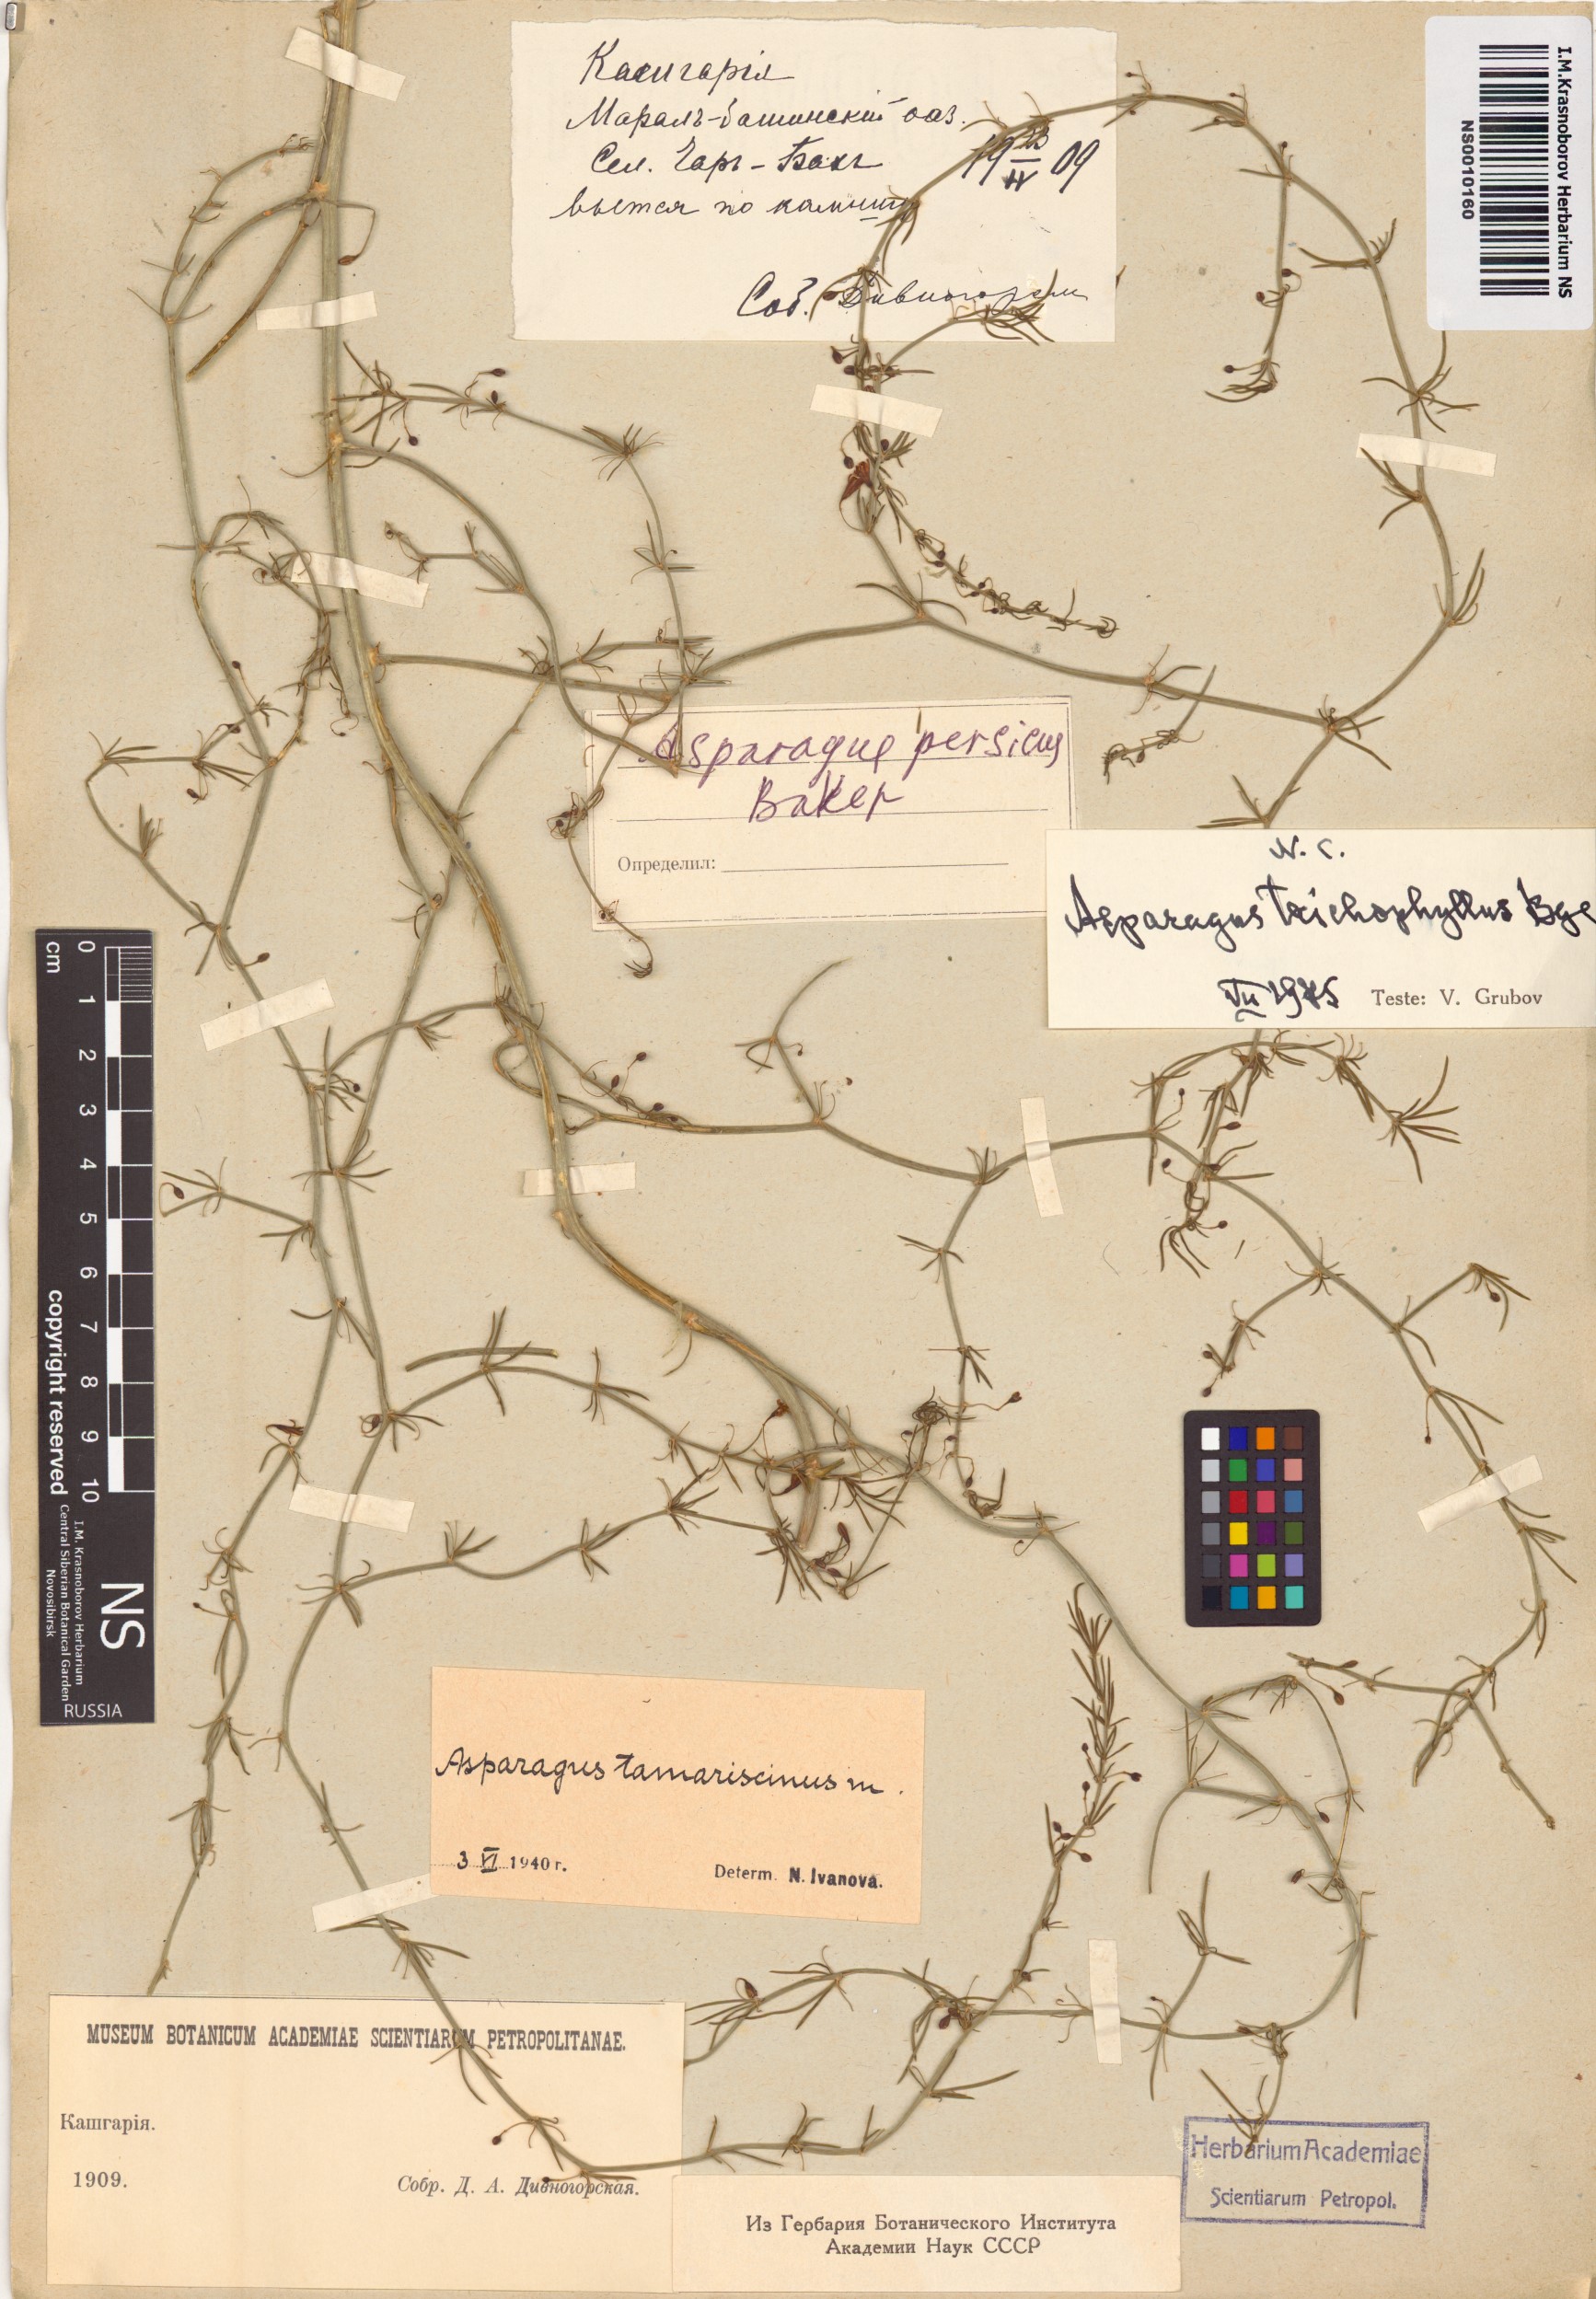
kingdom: Plantae
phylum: Tracheophyta
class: Liliopsida
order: Asparagales
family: Asparagaceae
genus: Asparagus
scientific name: Asparagus persicus
